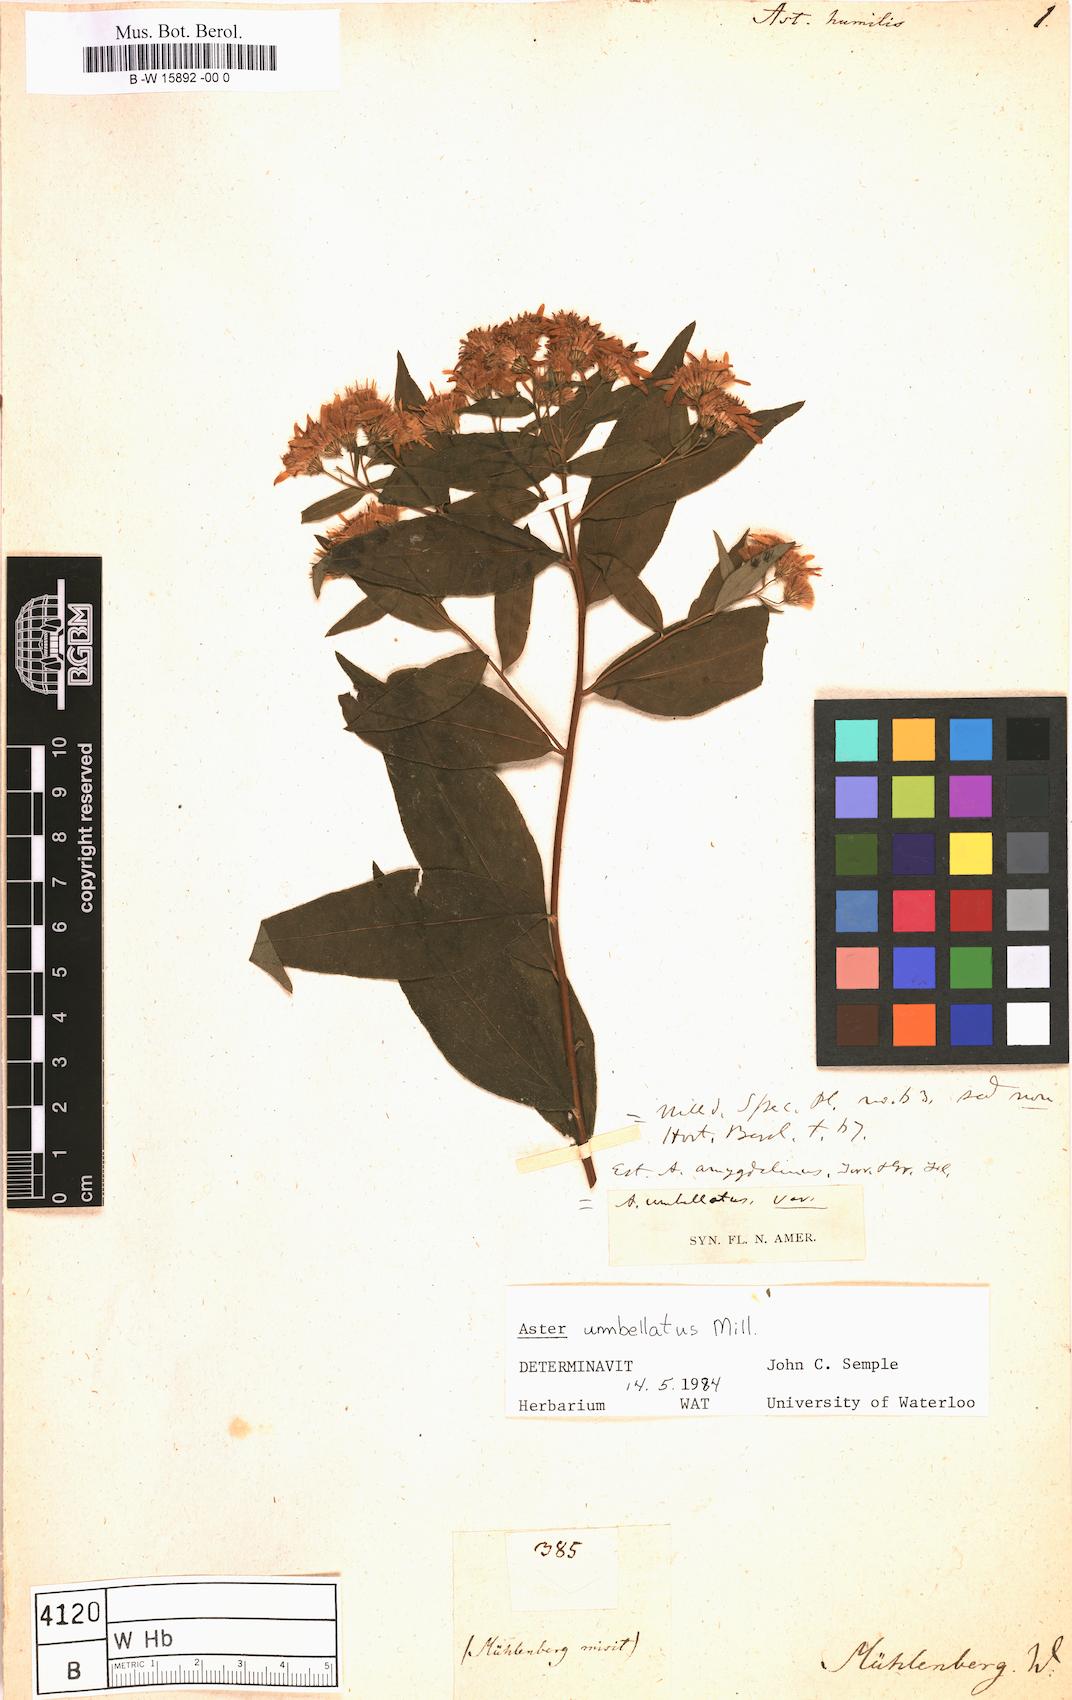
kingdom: Plantae
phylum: Tracheophyta
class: Magnoliopsida
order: Asterales
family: Asteraceae
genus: Doellingeria
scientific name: Doellingeria infirma
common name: Appalachian flat-top aster
